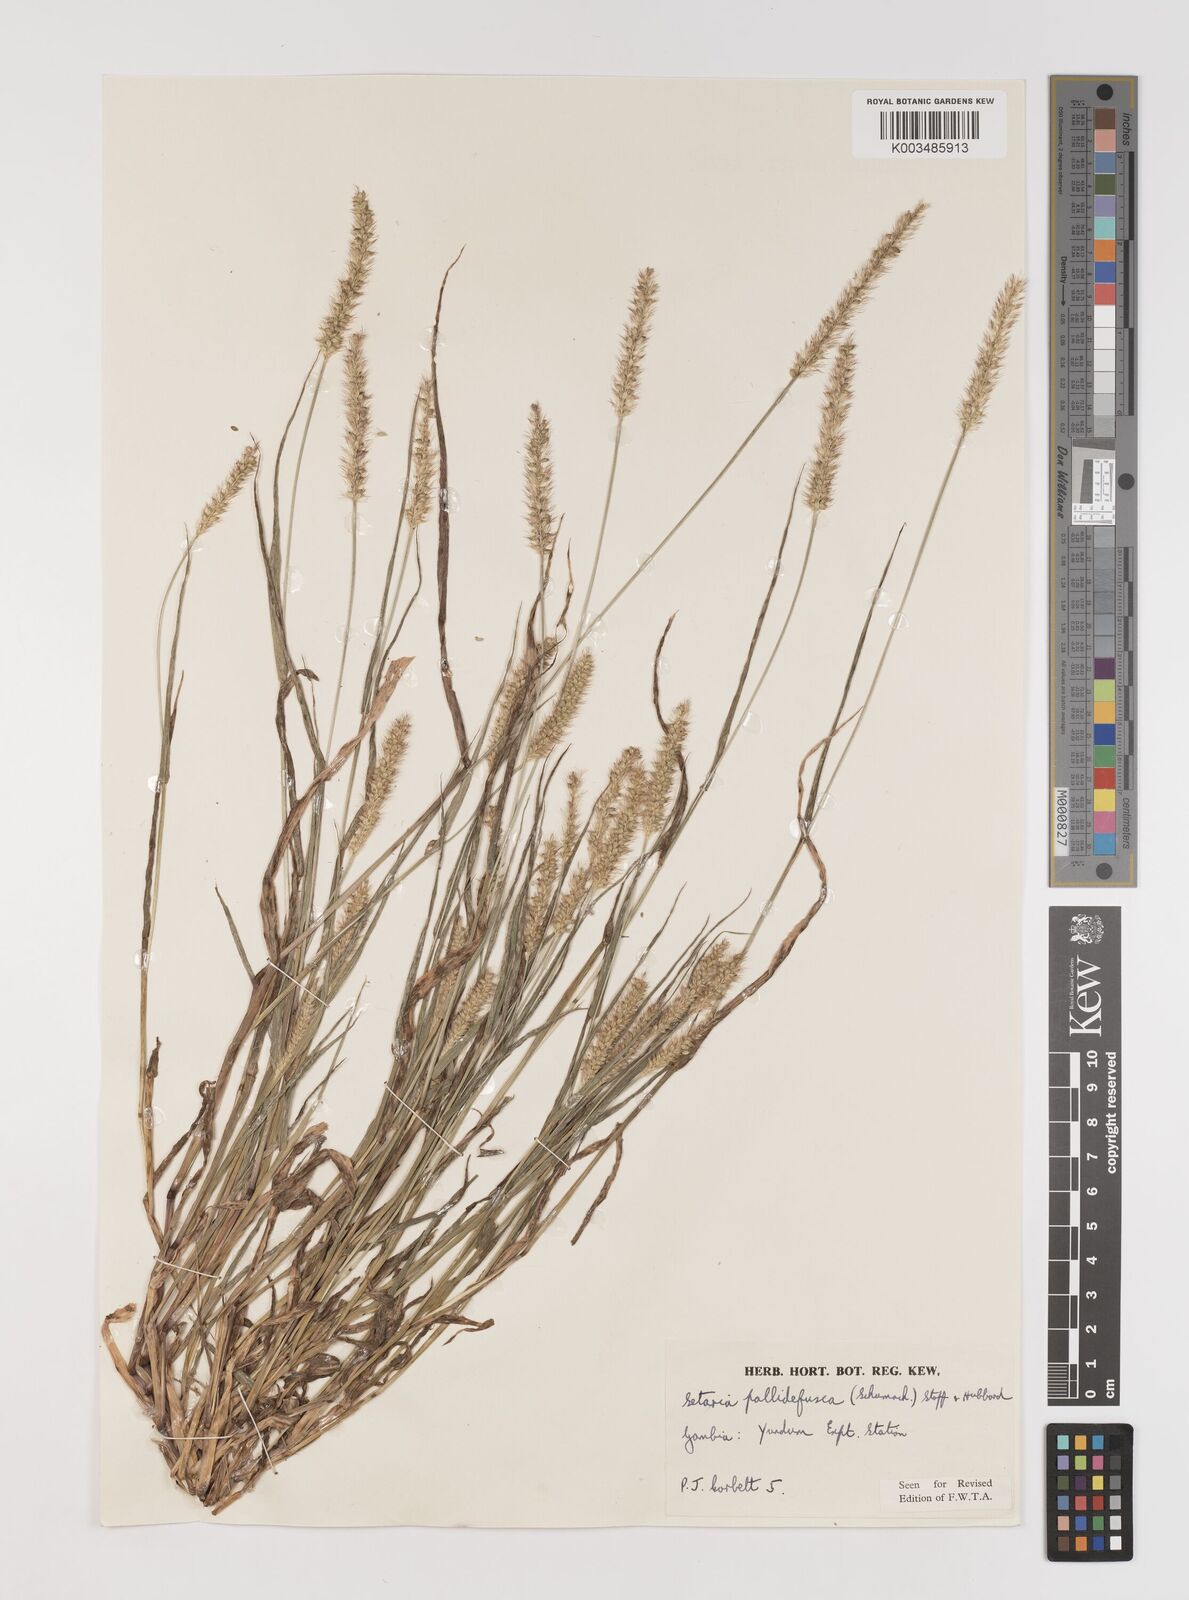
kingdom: Plantae
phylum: Tracheophyta
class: Liliopsida
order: Poales
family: Poaceae
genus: Setaria
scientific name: Setaria pumila
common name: Yellow bristle-grass
